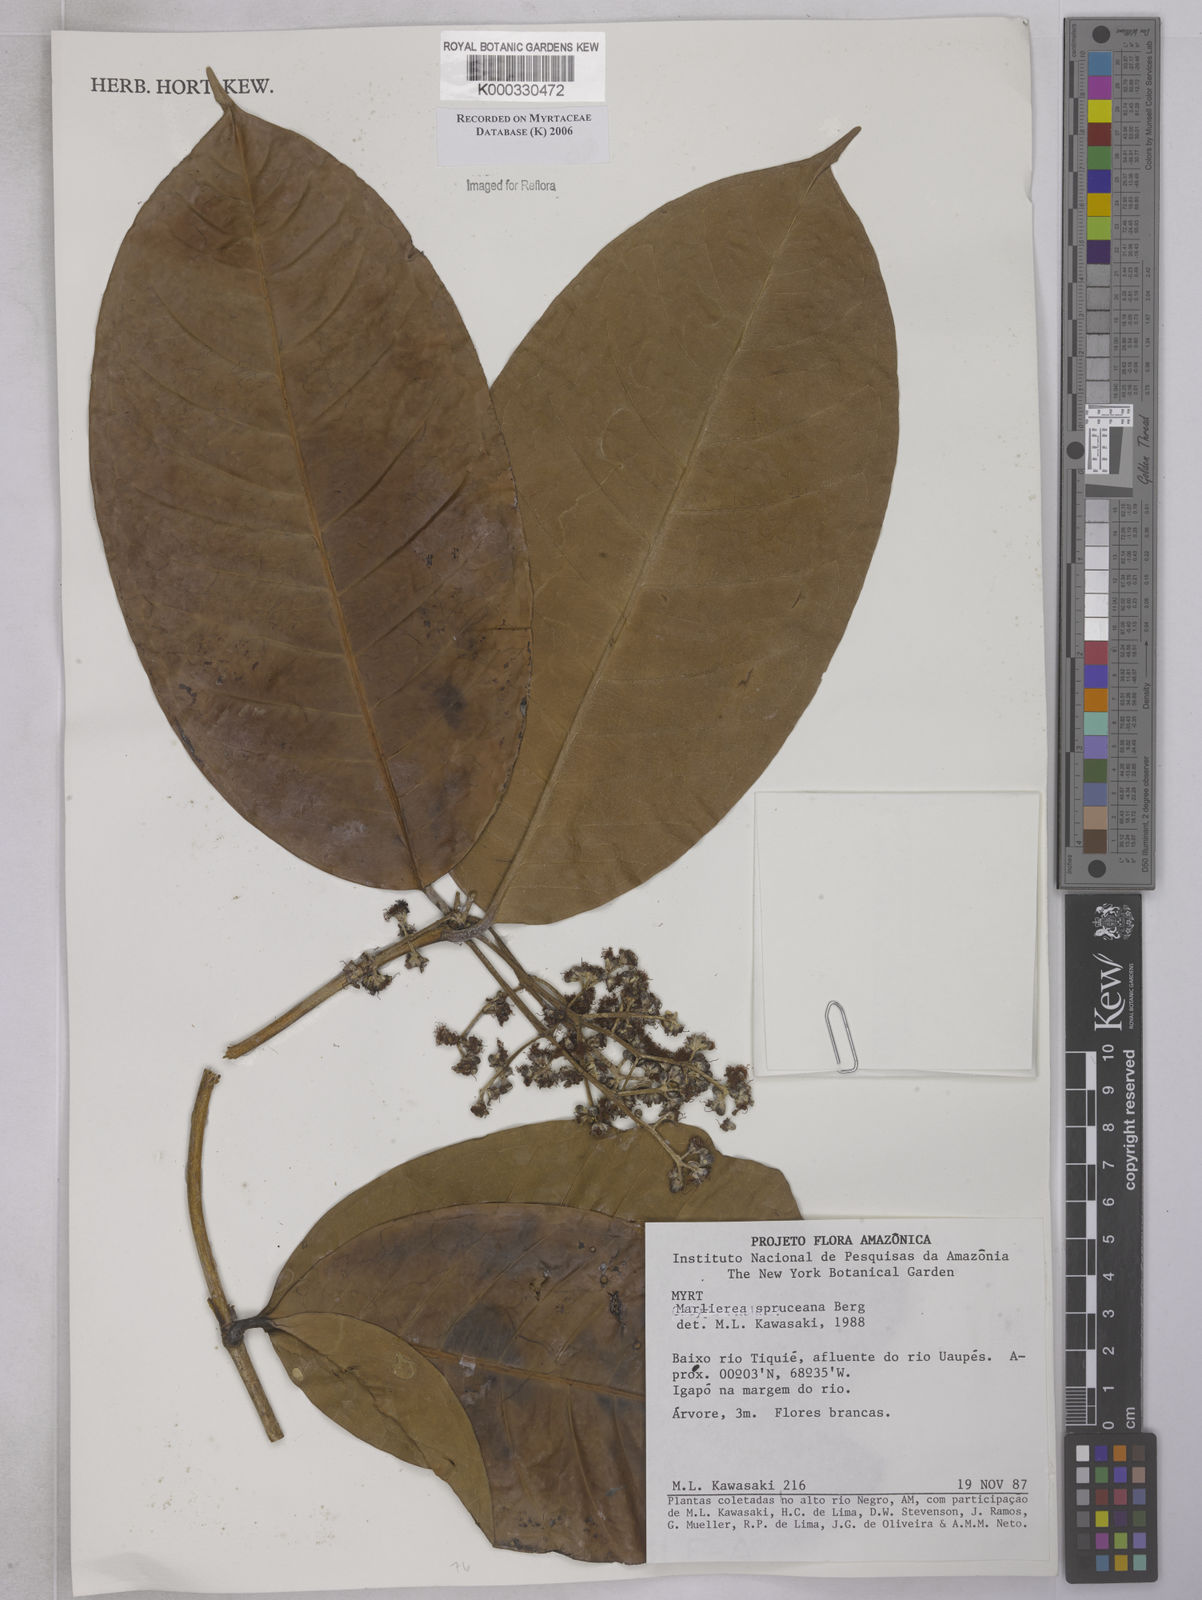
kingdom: Plantae
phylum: Tracheophyta
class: Magnoliopsida
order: Myrtales
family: Myrtaceae
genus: Myrcia
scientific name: Myrcia argentigemma
